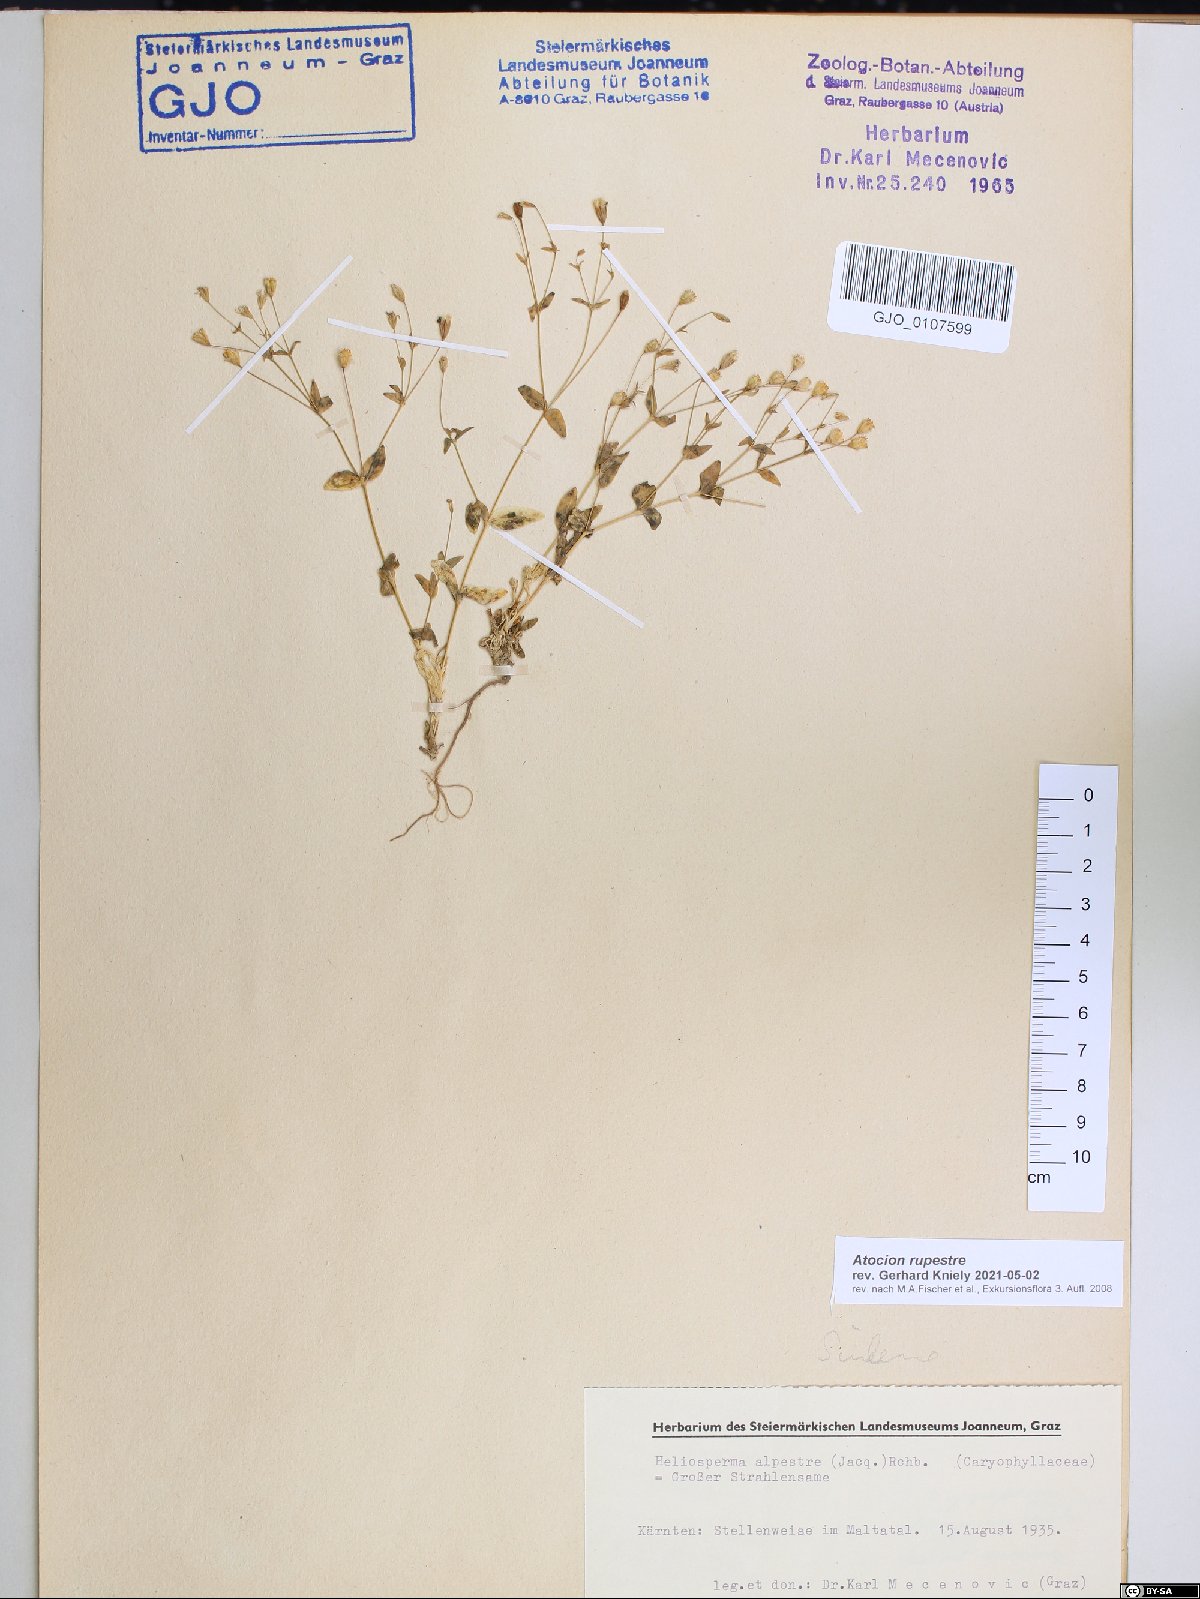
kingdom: Plantae
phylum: Tracheophyta
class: Magnoliopsida
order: Caryophyllales
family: Caryophyllaceae
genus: Atocion
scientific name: Atocion rupestre
